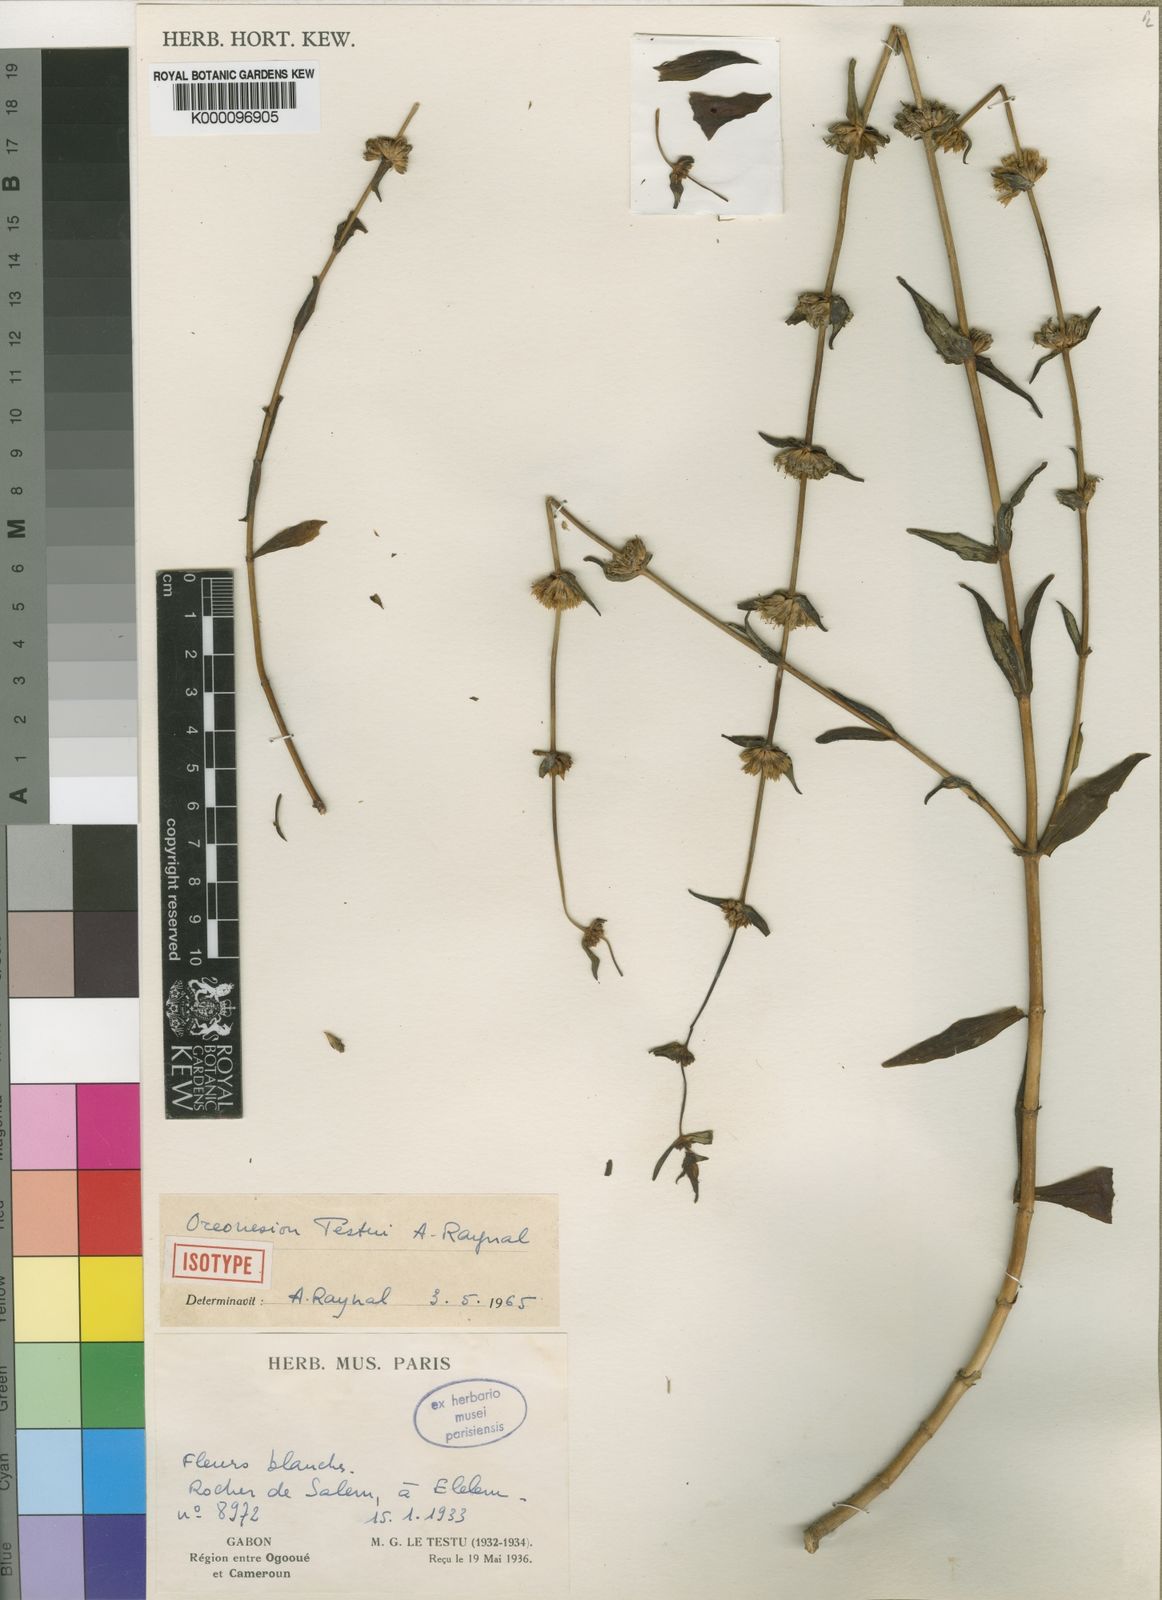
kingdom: Plantae
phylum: Tracheophyta
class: Magnoliopsida
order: Gentianales
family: Gentianaceae
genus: Oreonesion
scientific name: Oreonesion testui
